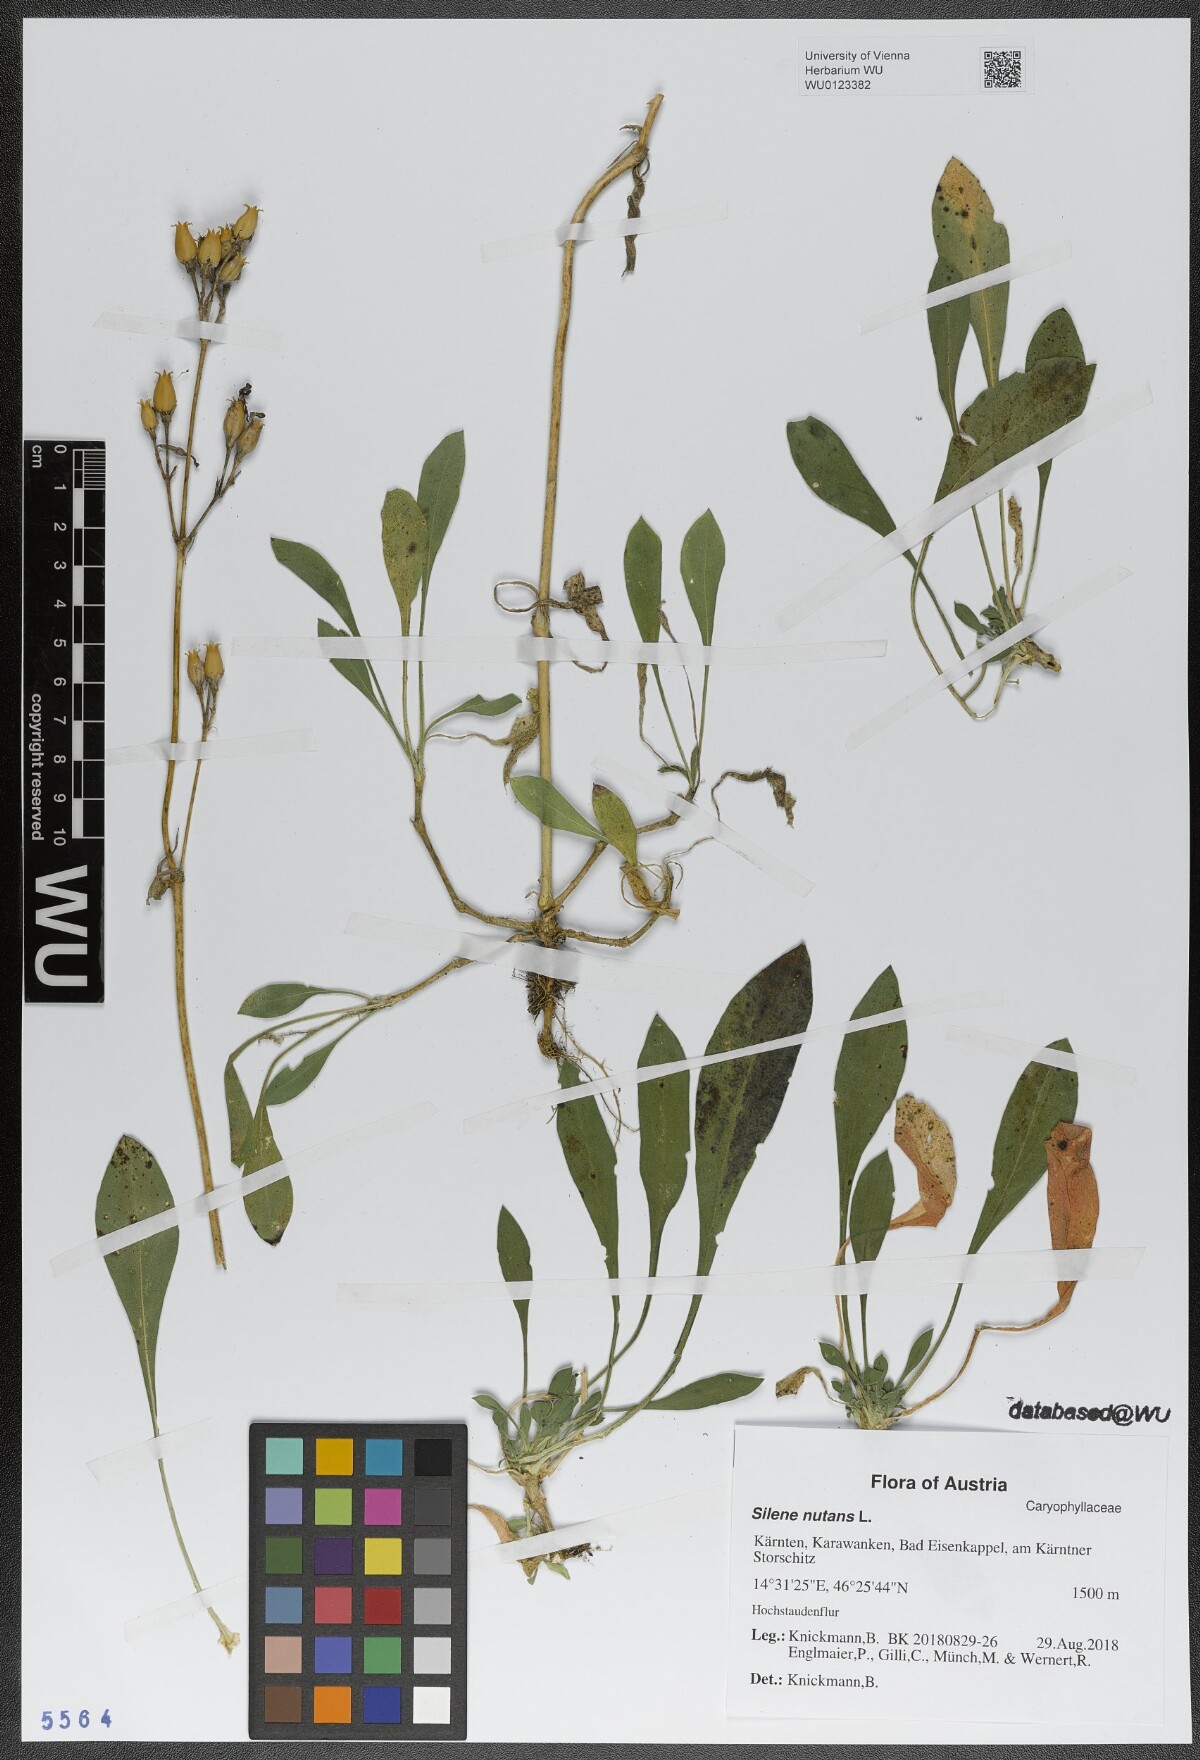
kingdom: Plantae
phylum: Tracheophyta
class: Magnoliopsida
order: Caryophyllales
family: Caryophyllaceae
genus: Silene
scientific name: Silene nutans
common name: Nottingham catchfly
